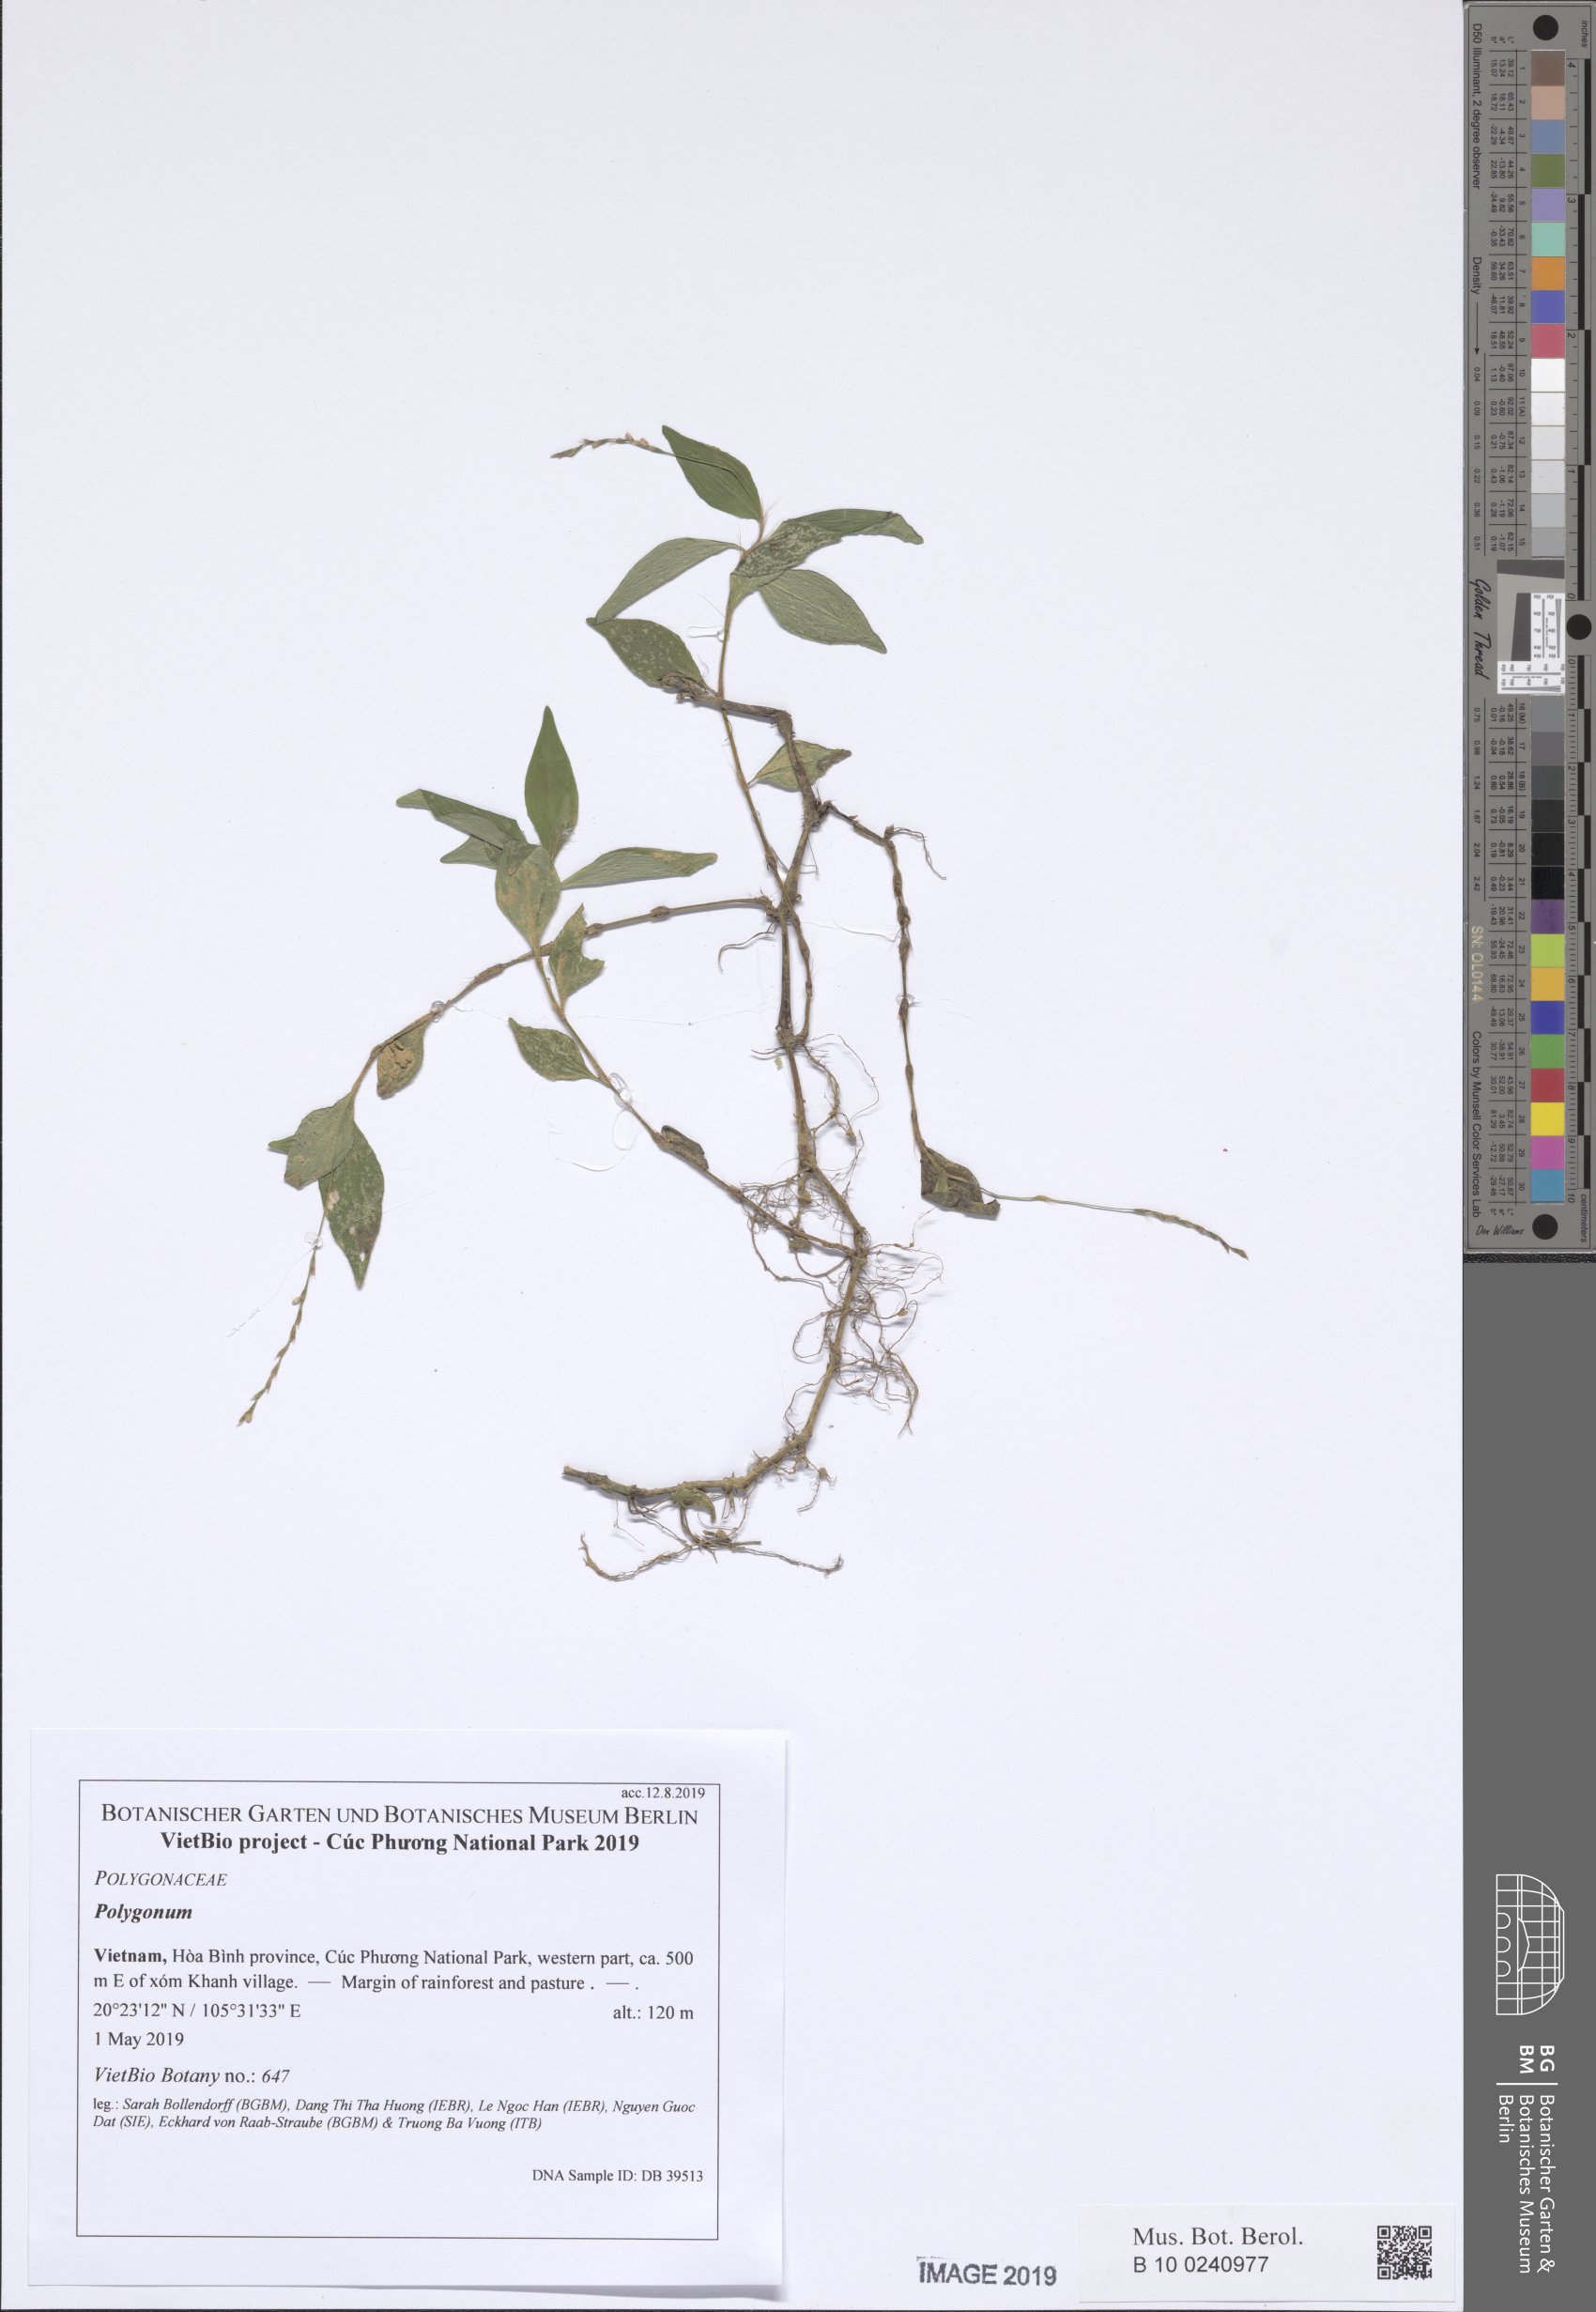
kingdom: Plantae
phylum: Tracheophyta
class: Magnoliopsida
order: Caryophyllales
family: Polygonaceae
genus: Persicaria
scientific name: Persicaria posumbu
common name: Oriental lady's thumb
